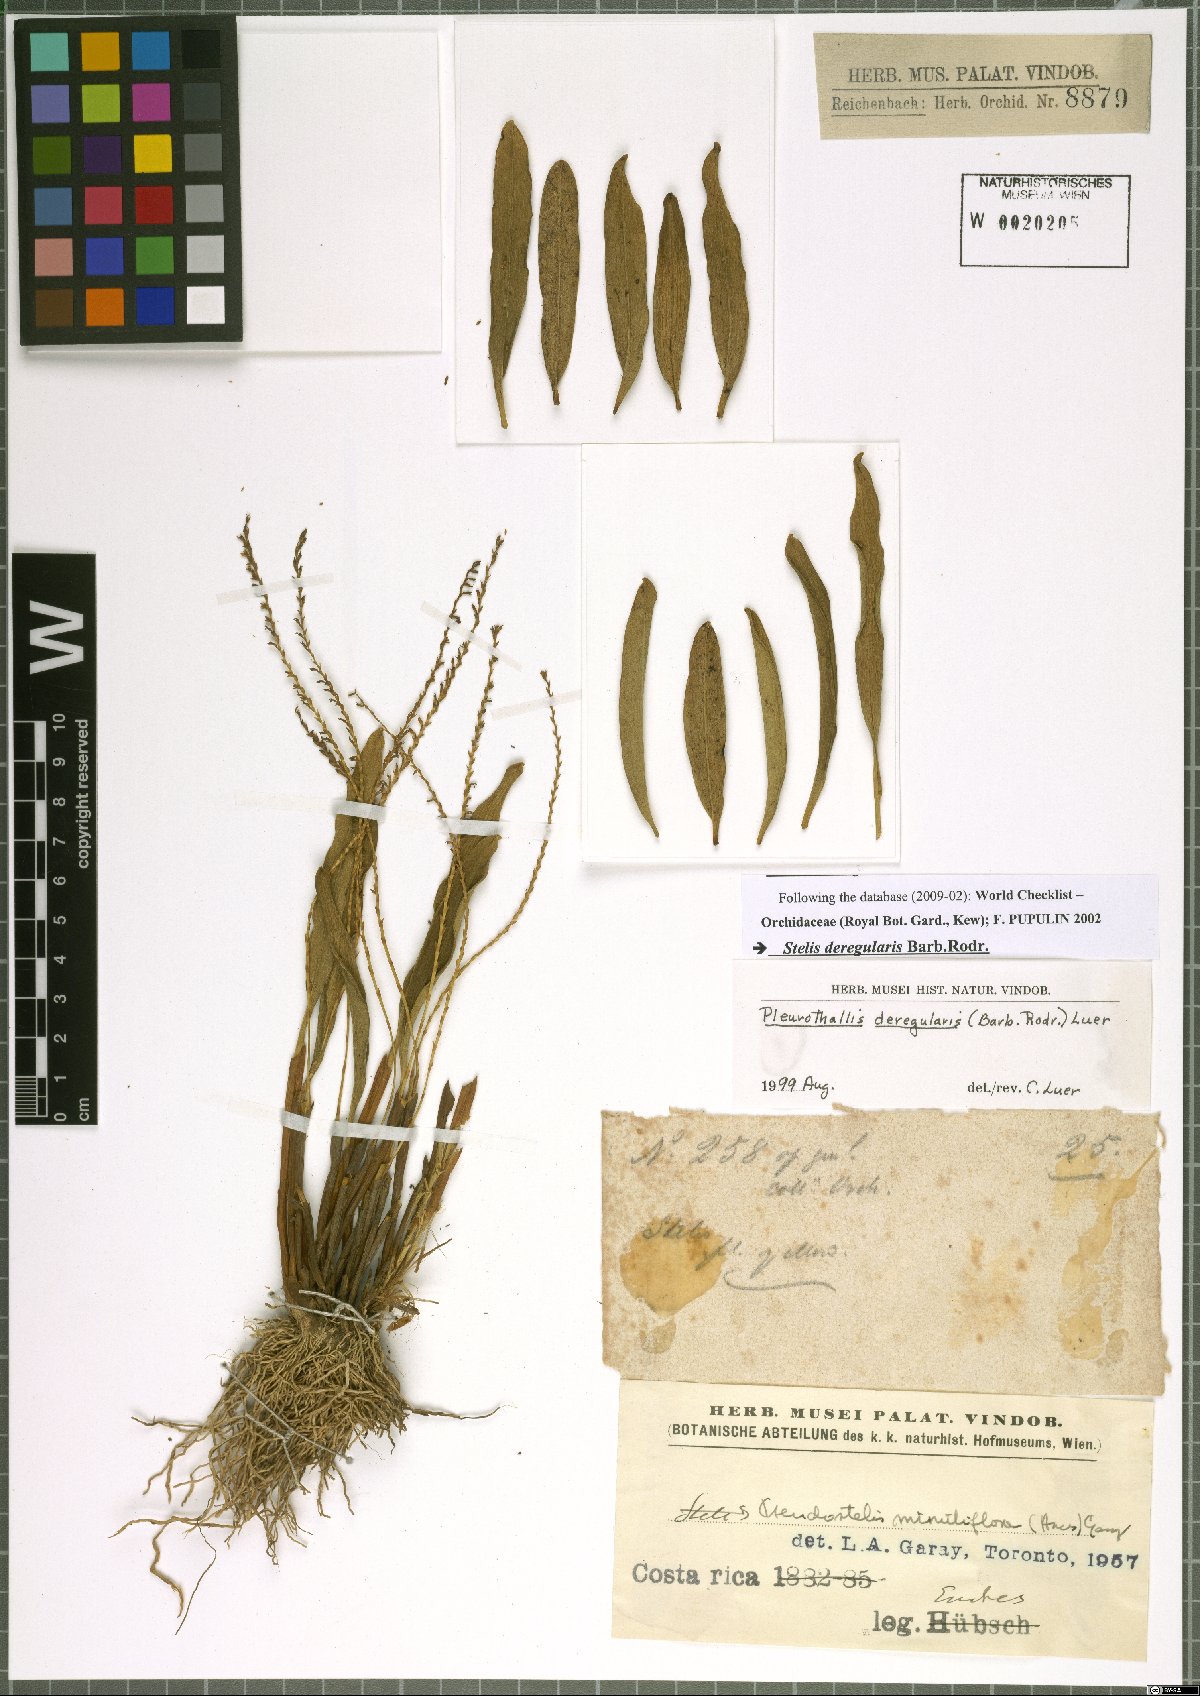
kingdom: Plantae
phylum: Tracheophyta
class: Liliopsida
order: Asparagales
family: Orchidaceae
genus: Stelis
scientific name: Stelis deregularis
